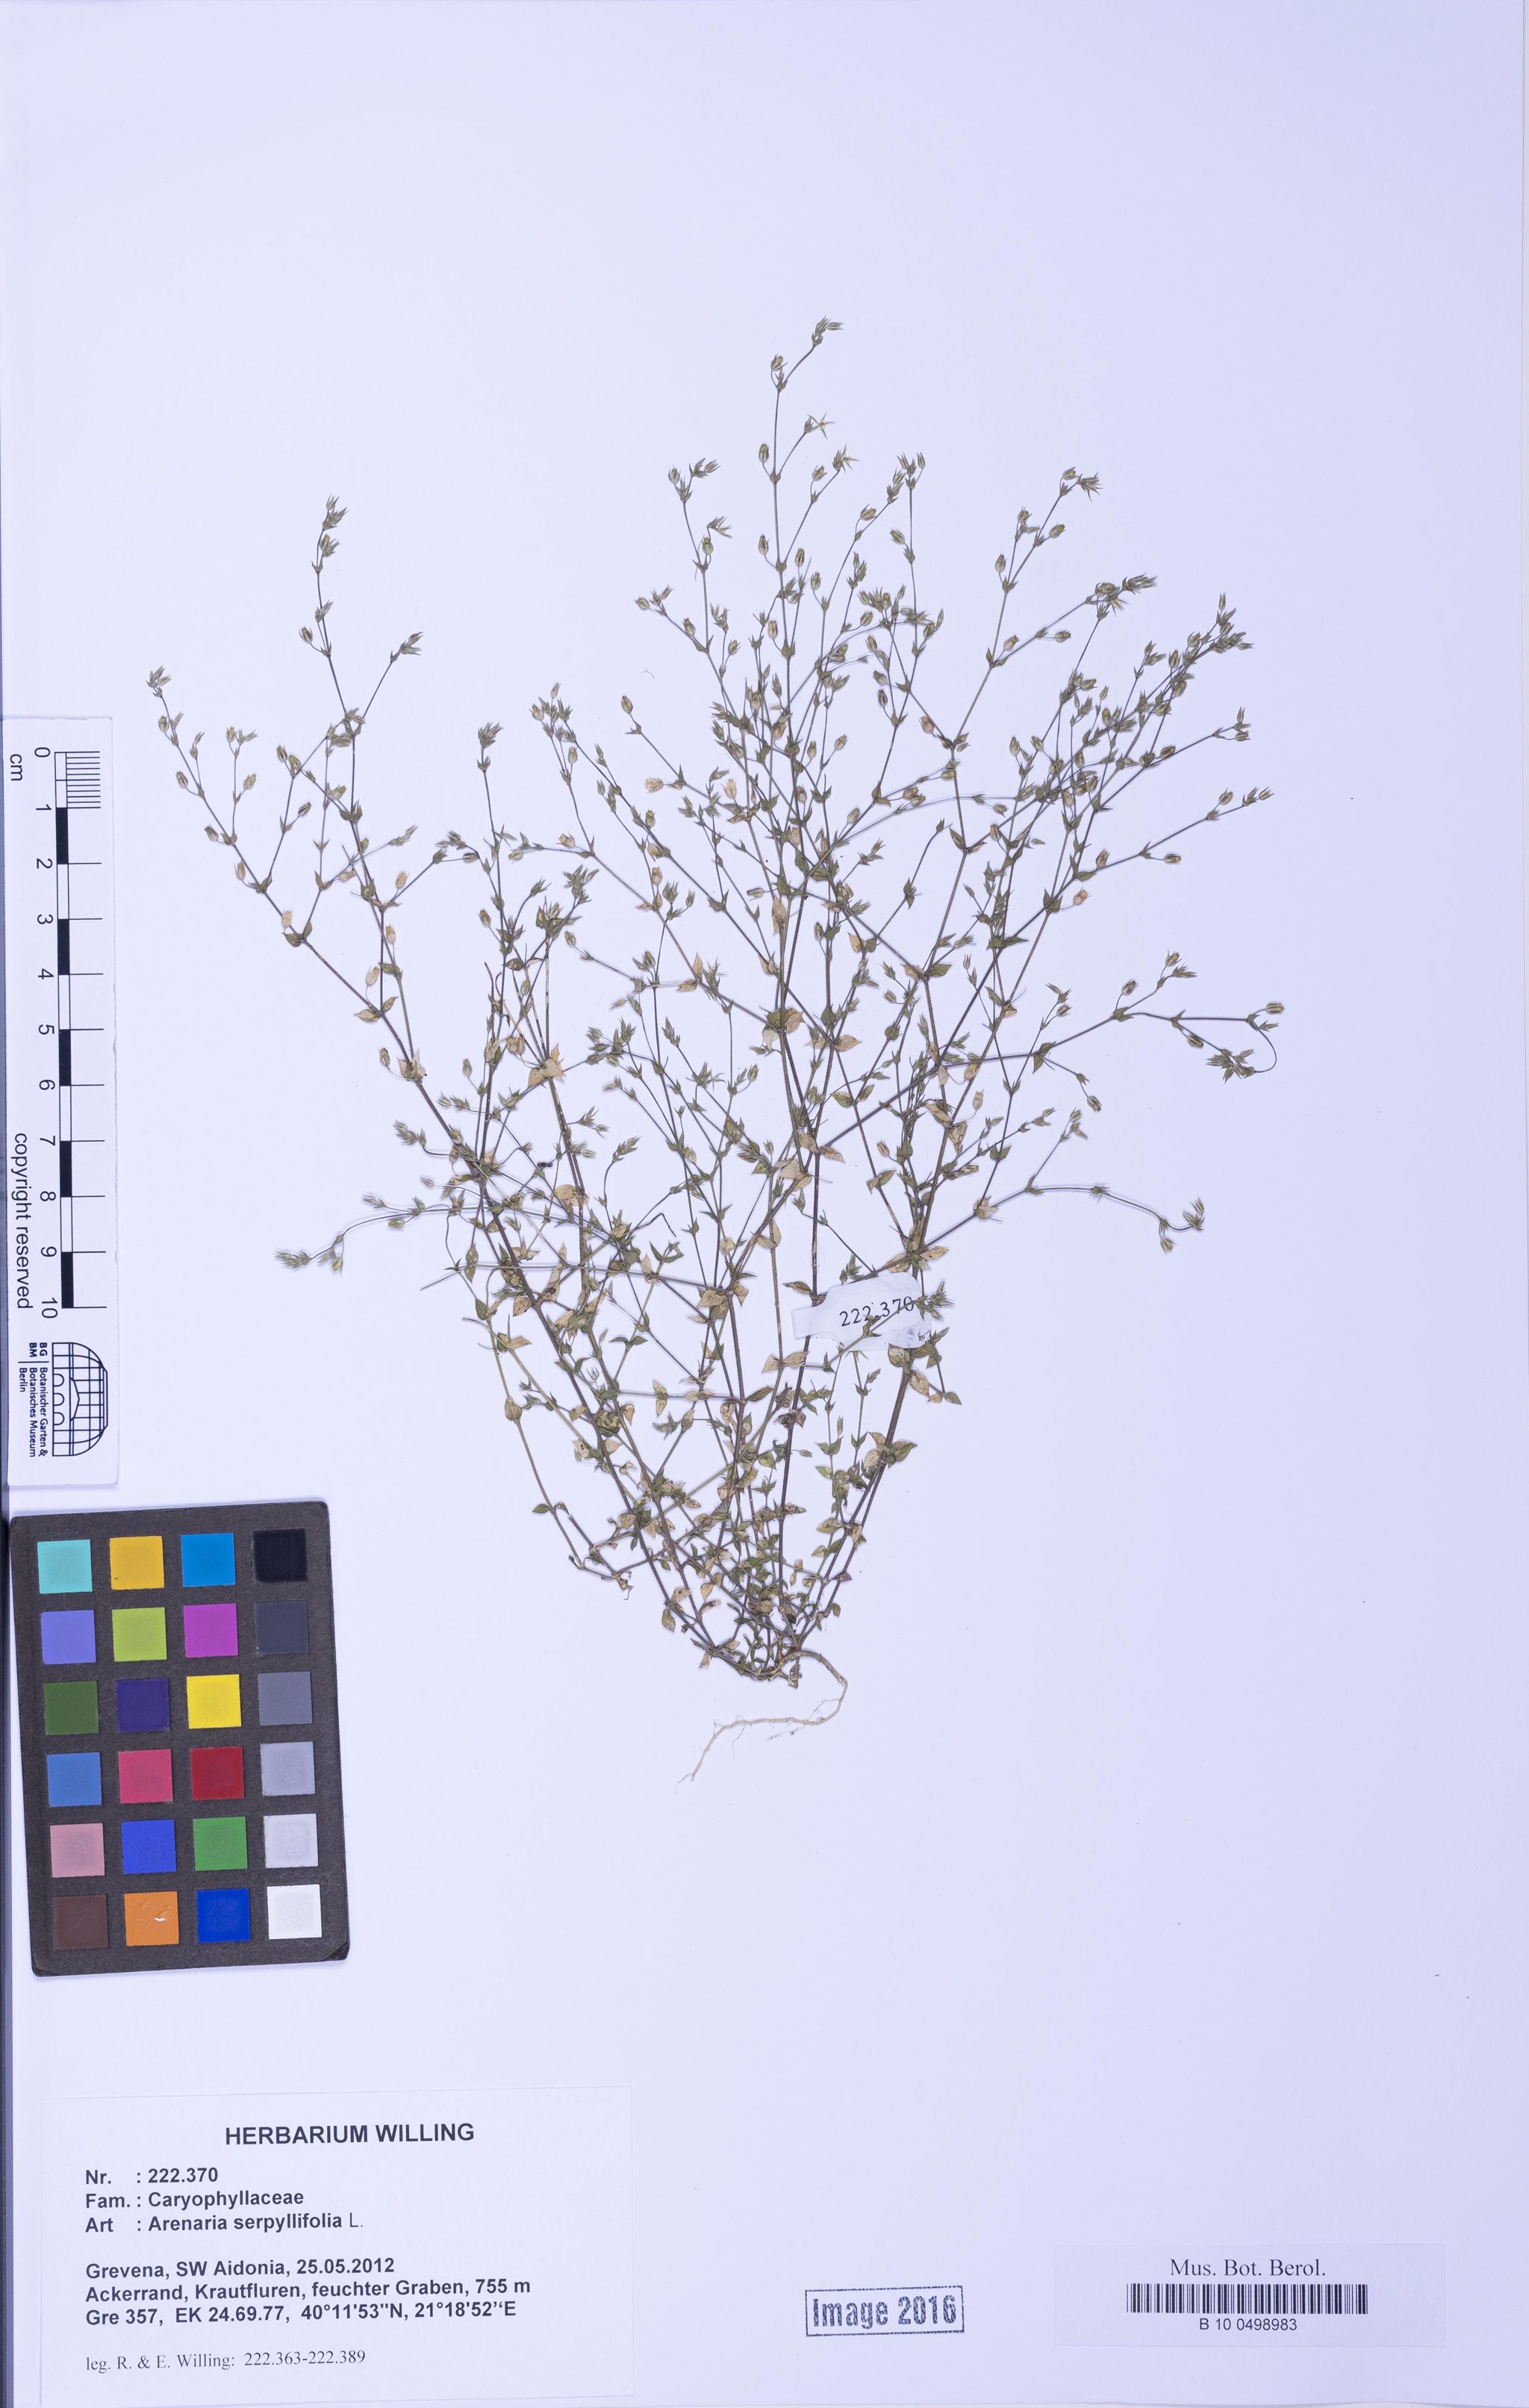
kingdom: Plantae
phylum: Tracheophyta
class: Magnoliopsida
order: Caryophyllales
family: Caryophyllaceae
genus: Arenaria
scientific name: Arenaria serpyllifolia
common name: Thyme-leaved sandwort
